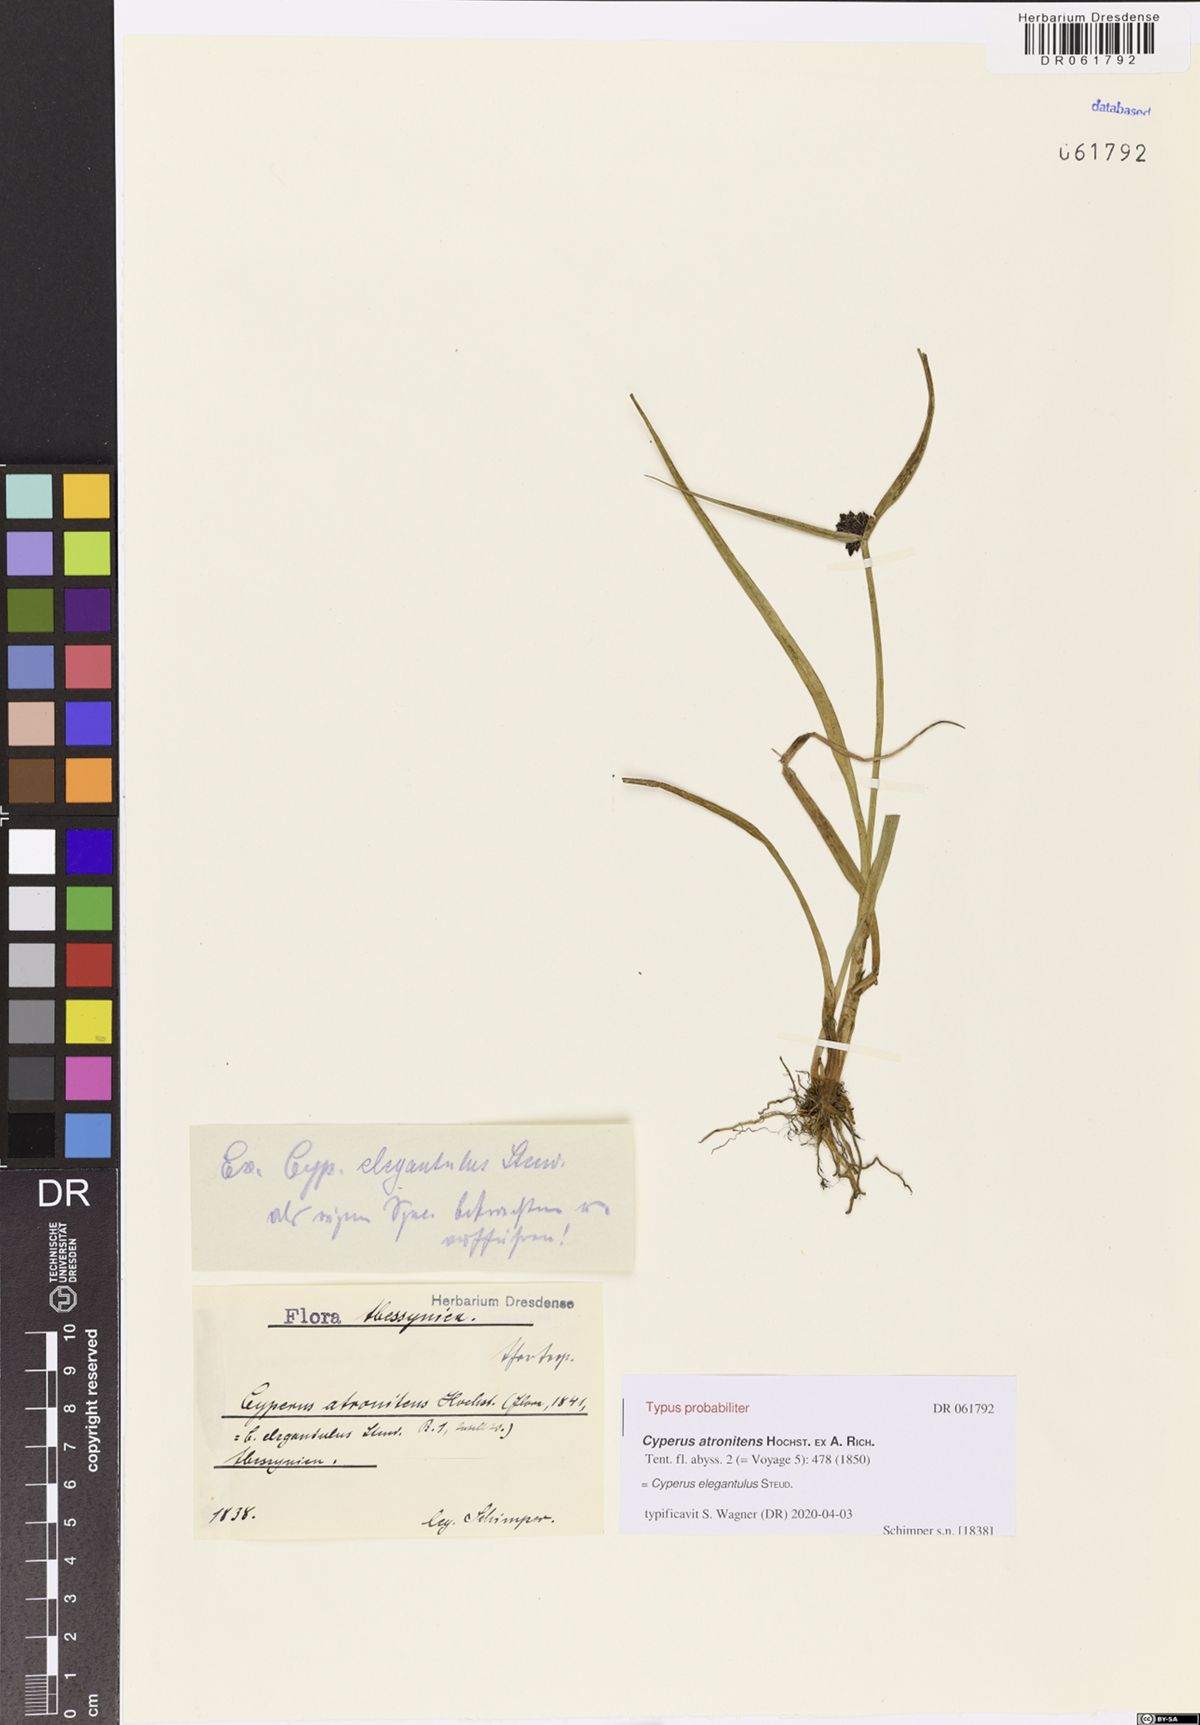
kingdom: Plantae
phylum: Tracheophyta
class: Liliopsida
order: Poales
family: Cyperaceae
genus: Cyperus
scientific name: Cyperus elegantulus
